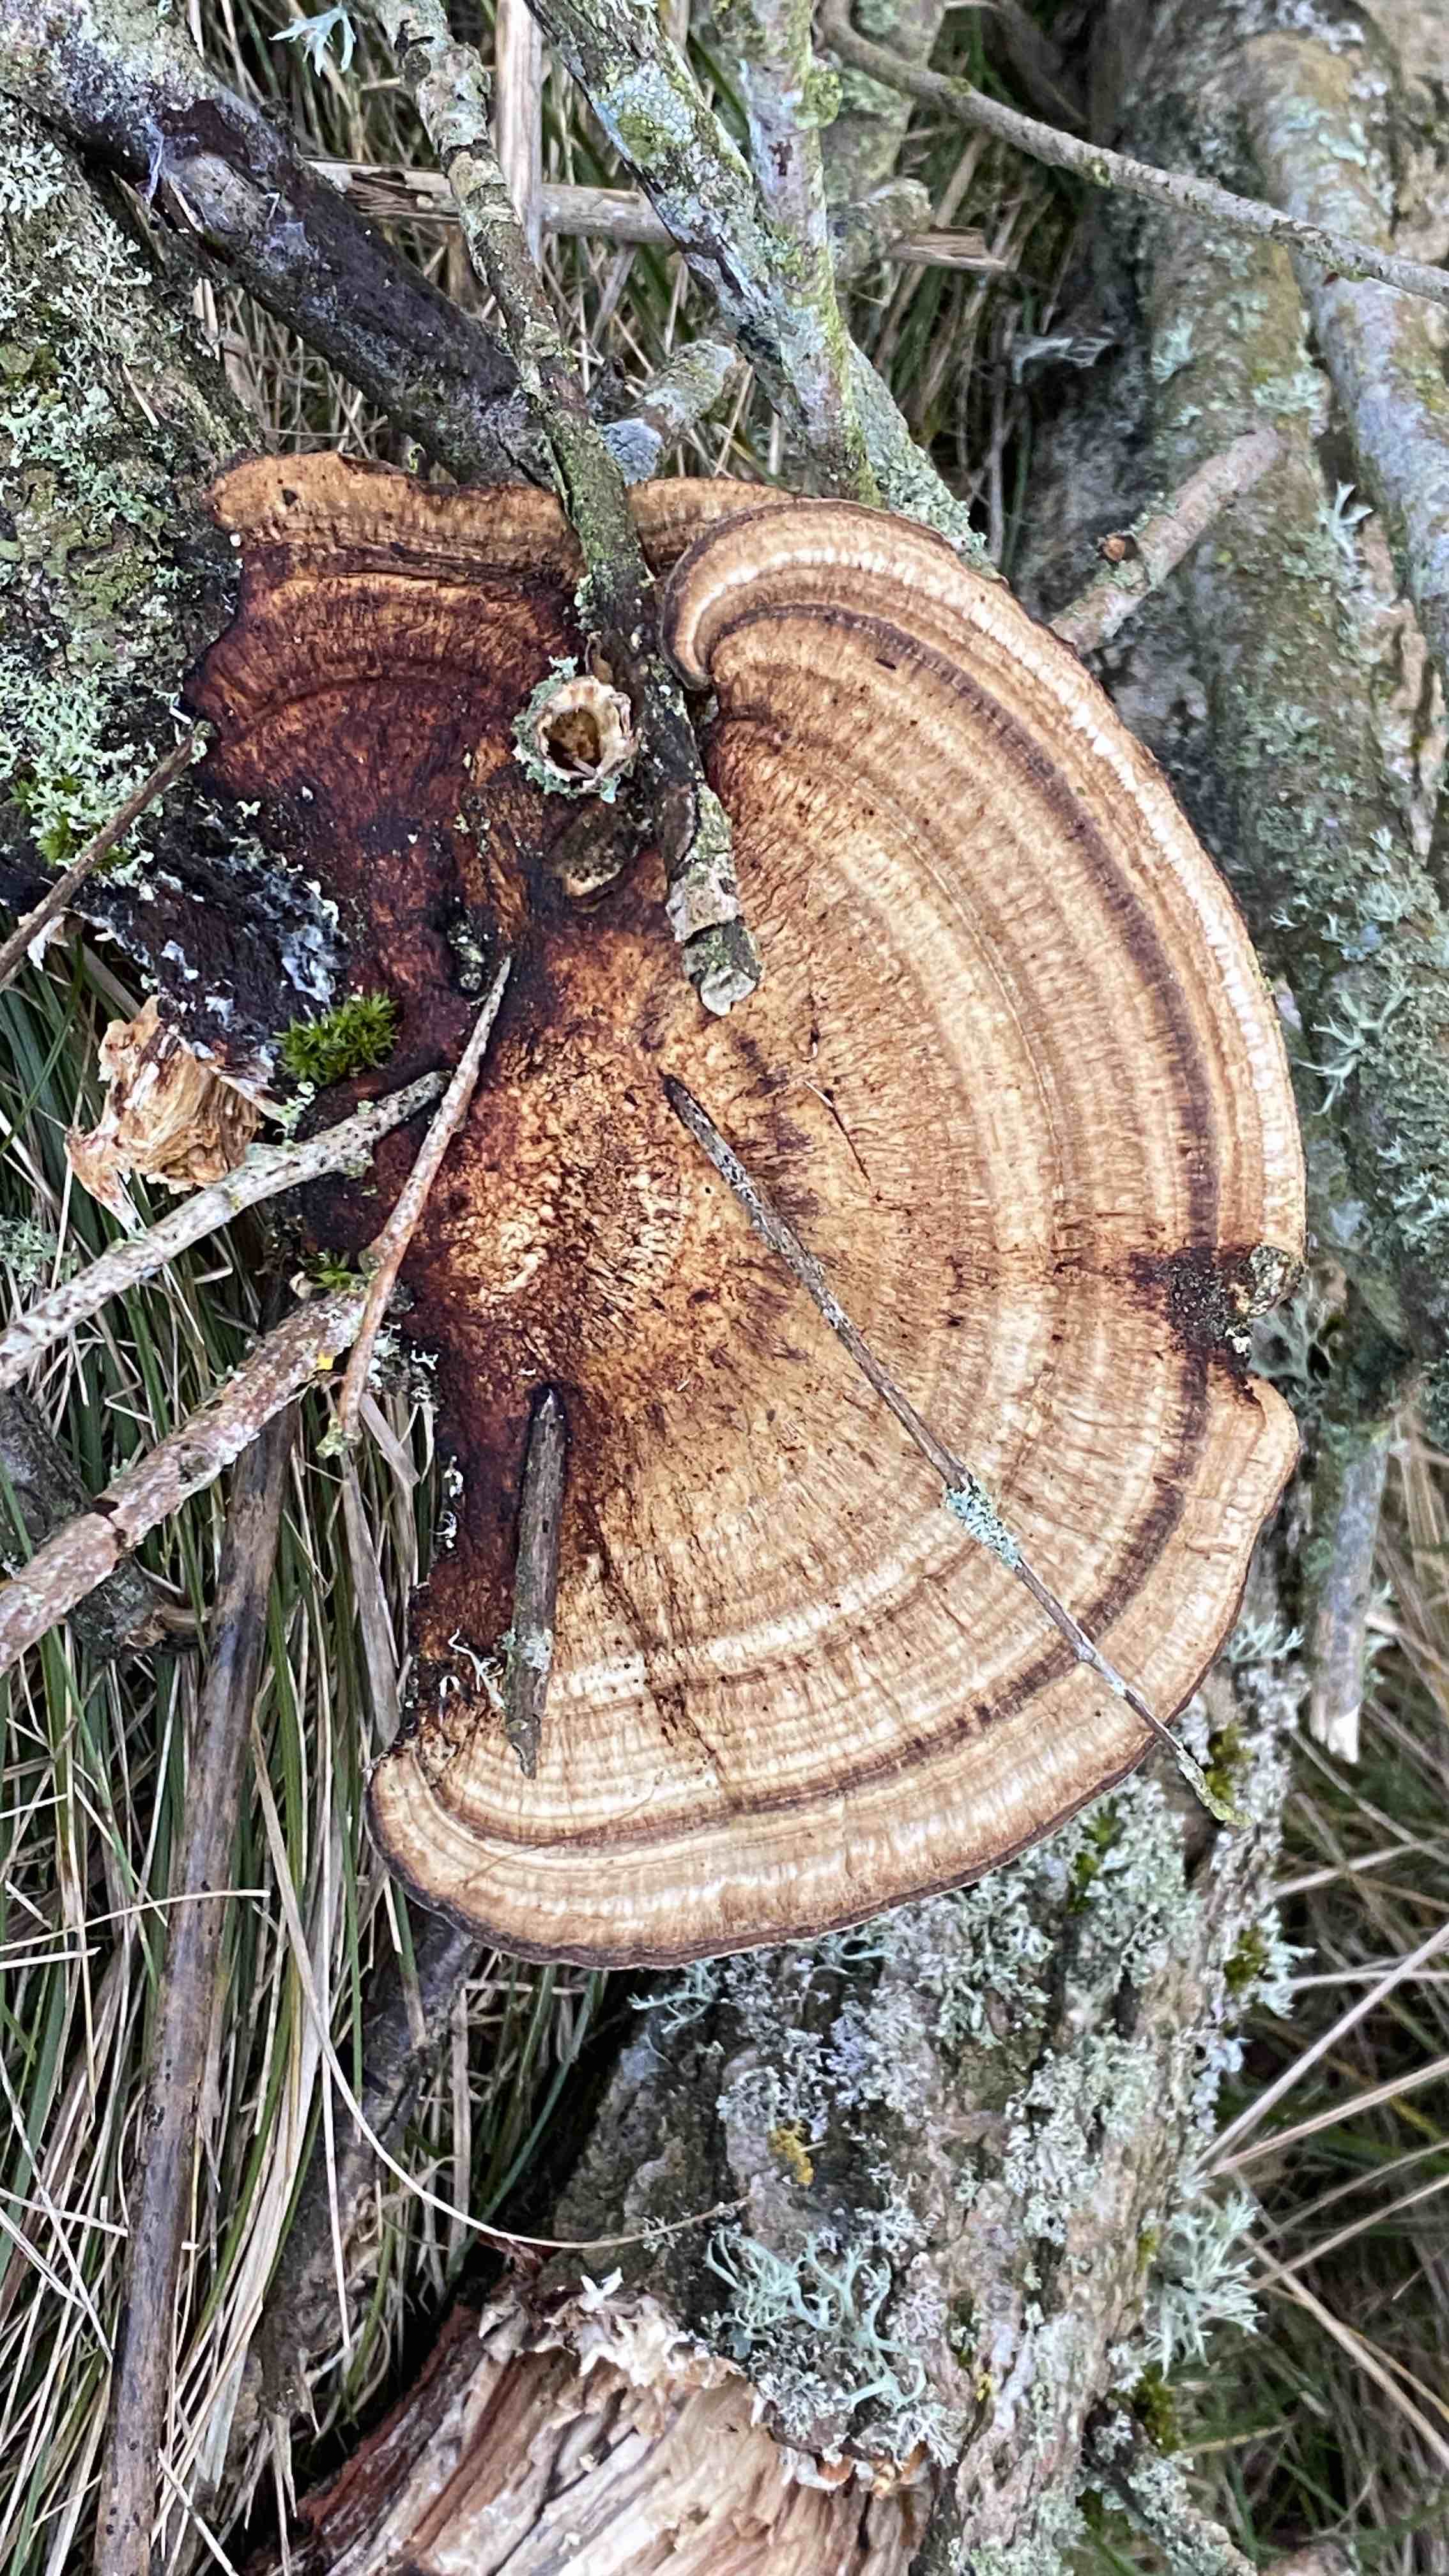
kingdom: Fungi
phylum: Basidiomycota
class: Agaricomycetes
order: Polyporales
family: Polyporaceae
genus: Daedaleopsis
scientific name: Daedaleopsis confragosa
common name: rødmende læderporesvamp
